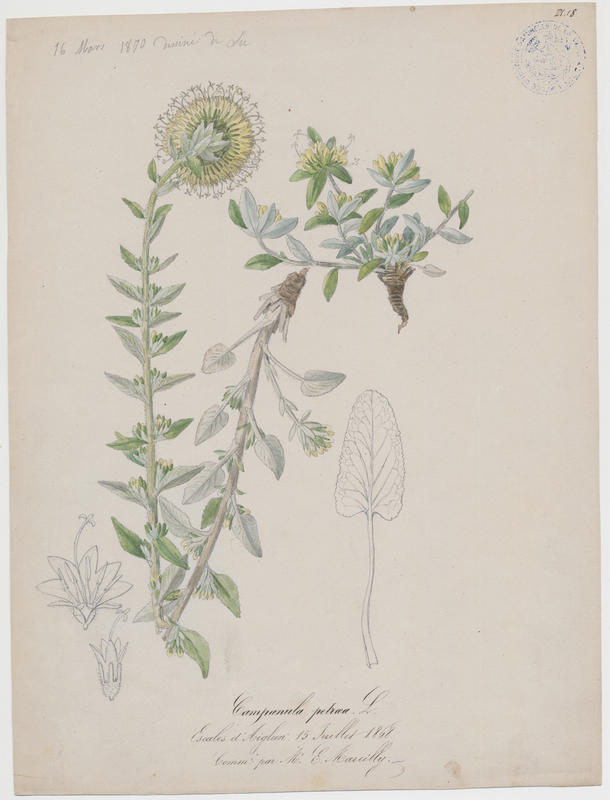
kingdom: Plantae
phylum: Tracheophyta
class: Magnoliopsida
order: Asterales
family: Campanulaceae
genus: Campanula
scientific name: Campanula petraea
